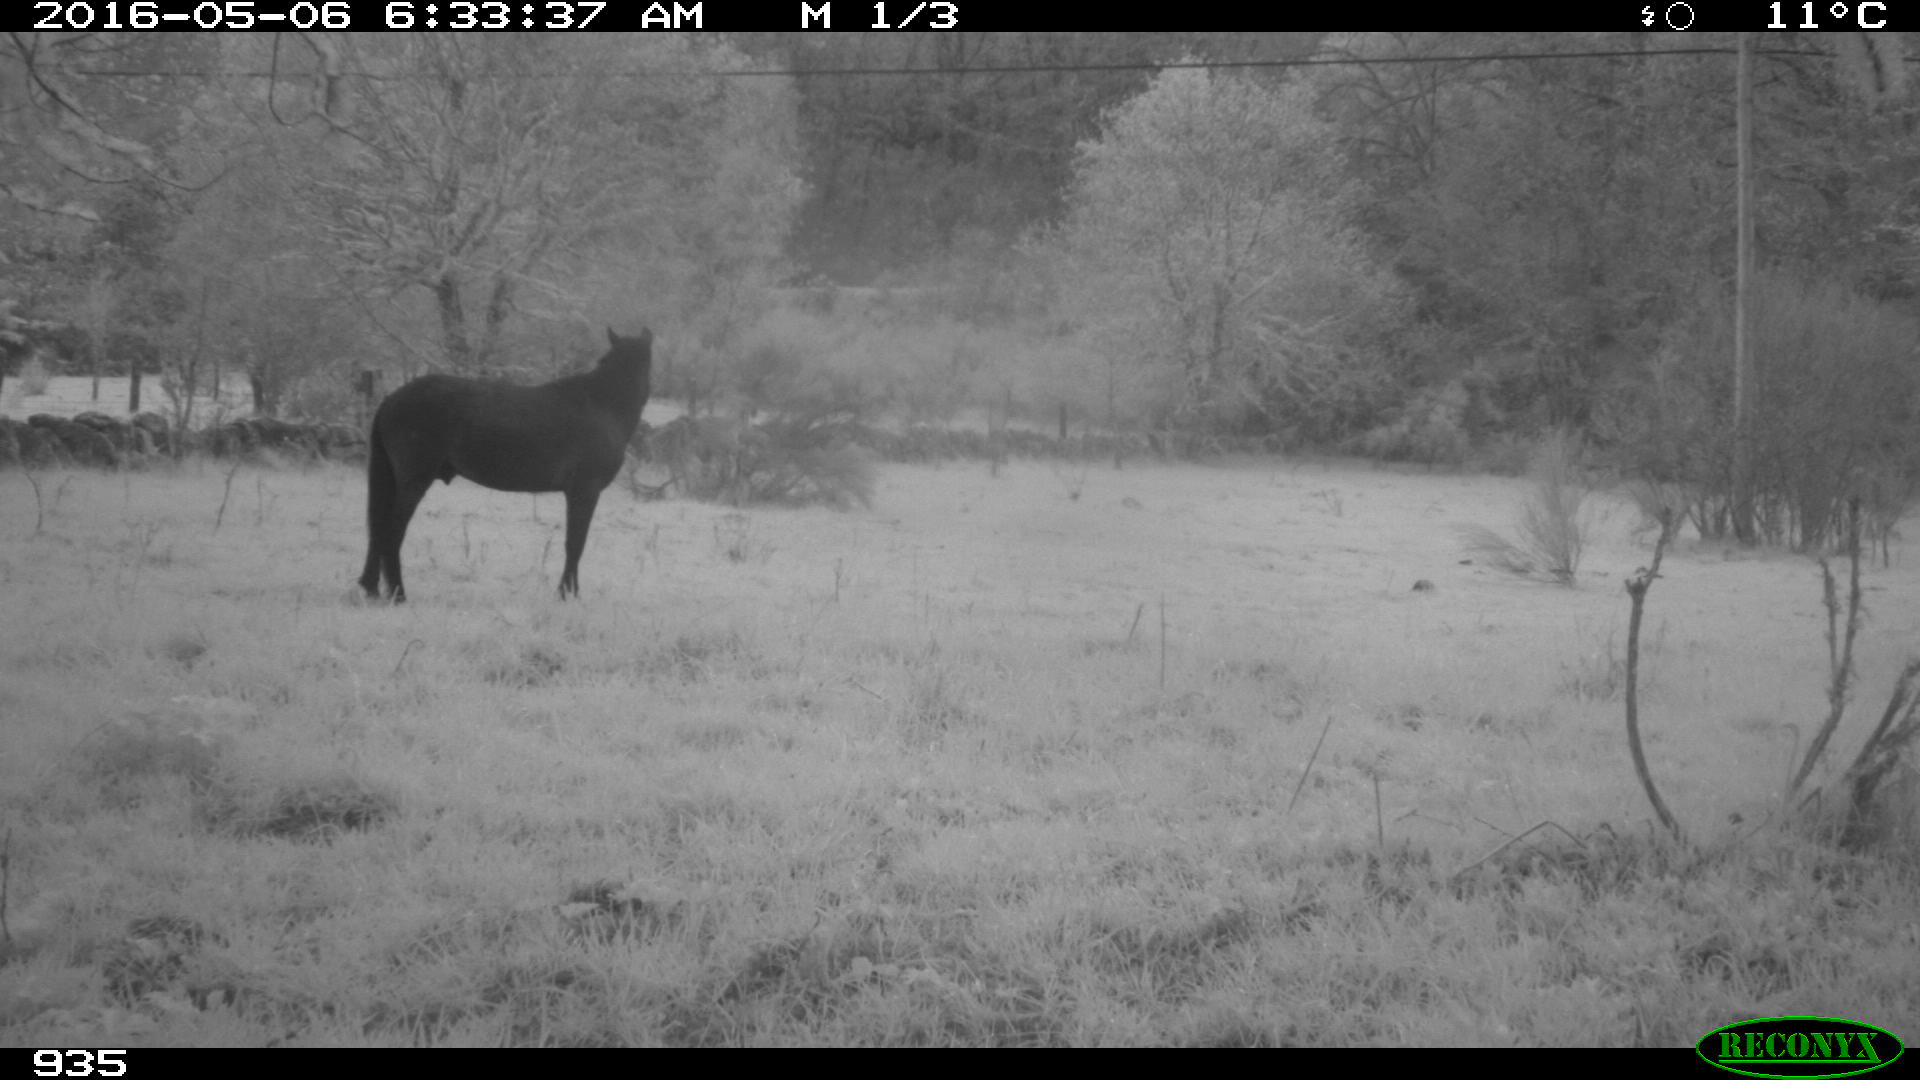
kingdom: Animalia
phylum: Chordata
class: Mammalia
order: Perissodactyla
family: Equidae
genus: Equus
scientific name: Equus caballus
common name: Horse
